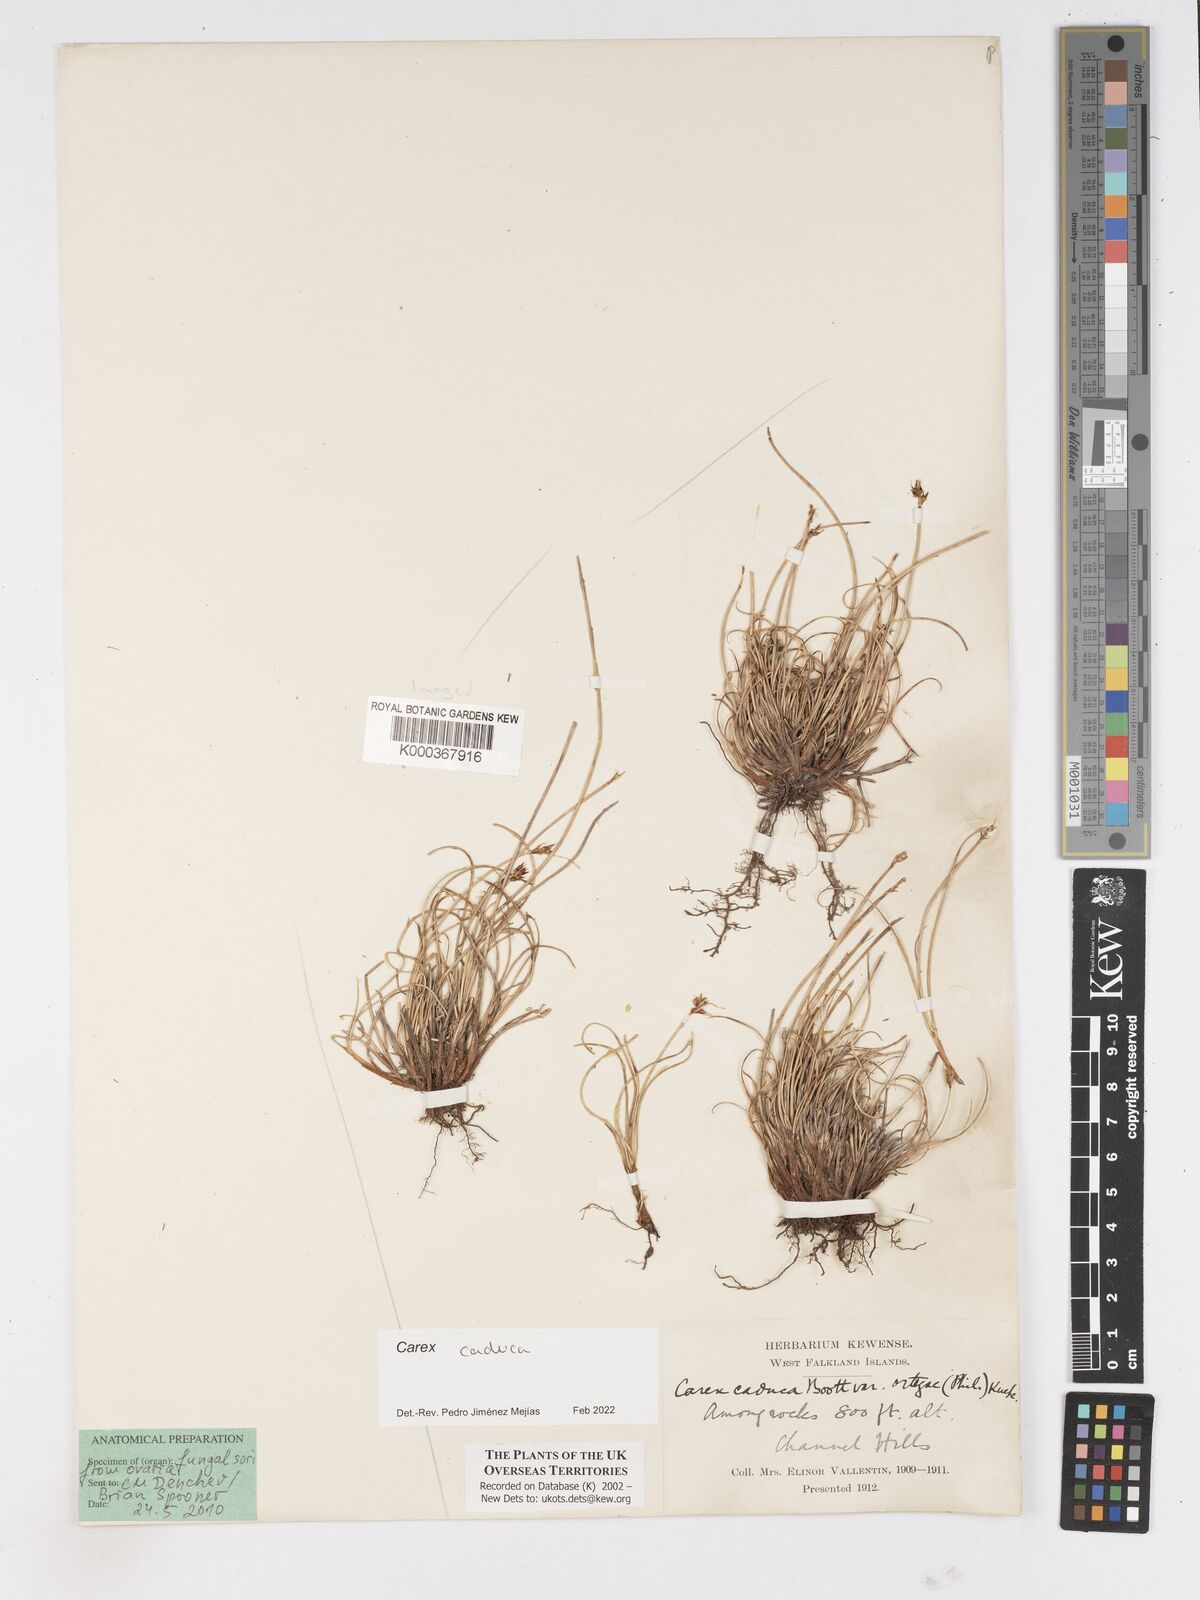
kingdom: Plantae
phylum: Tracheophyta
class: Liliopsida
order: Poales
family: Cyperaceae
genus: Carex
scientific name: Carex caduca
